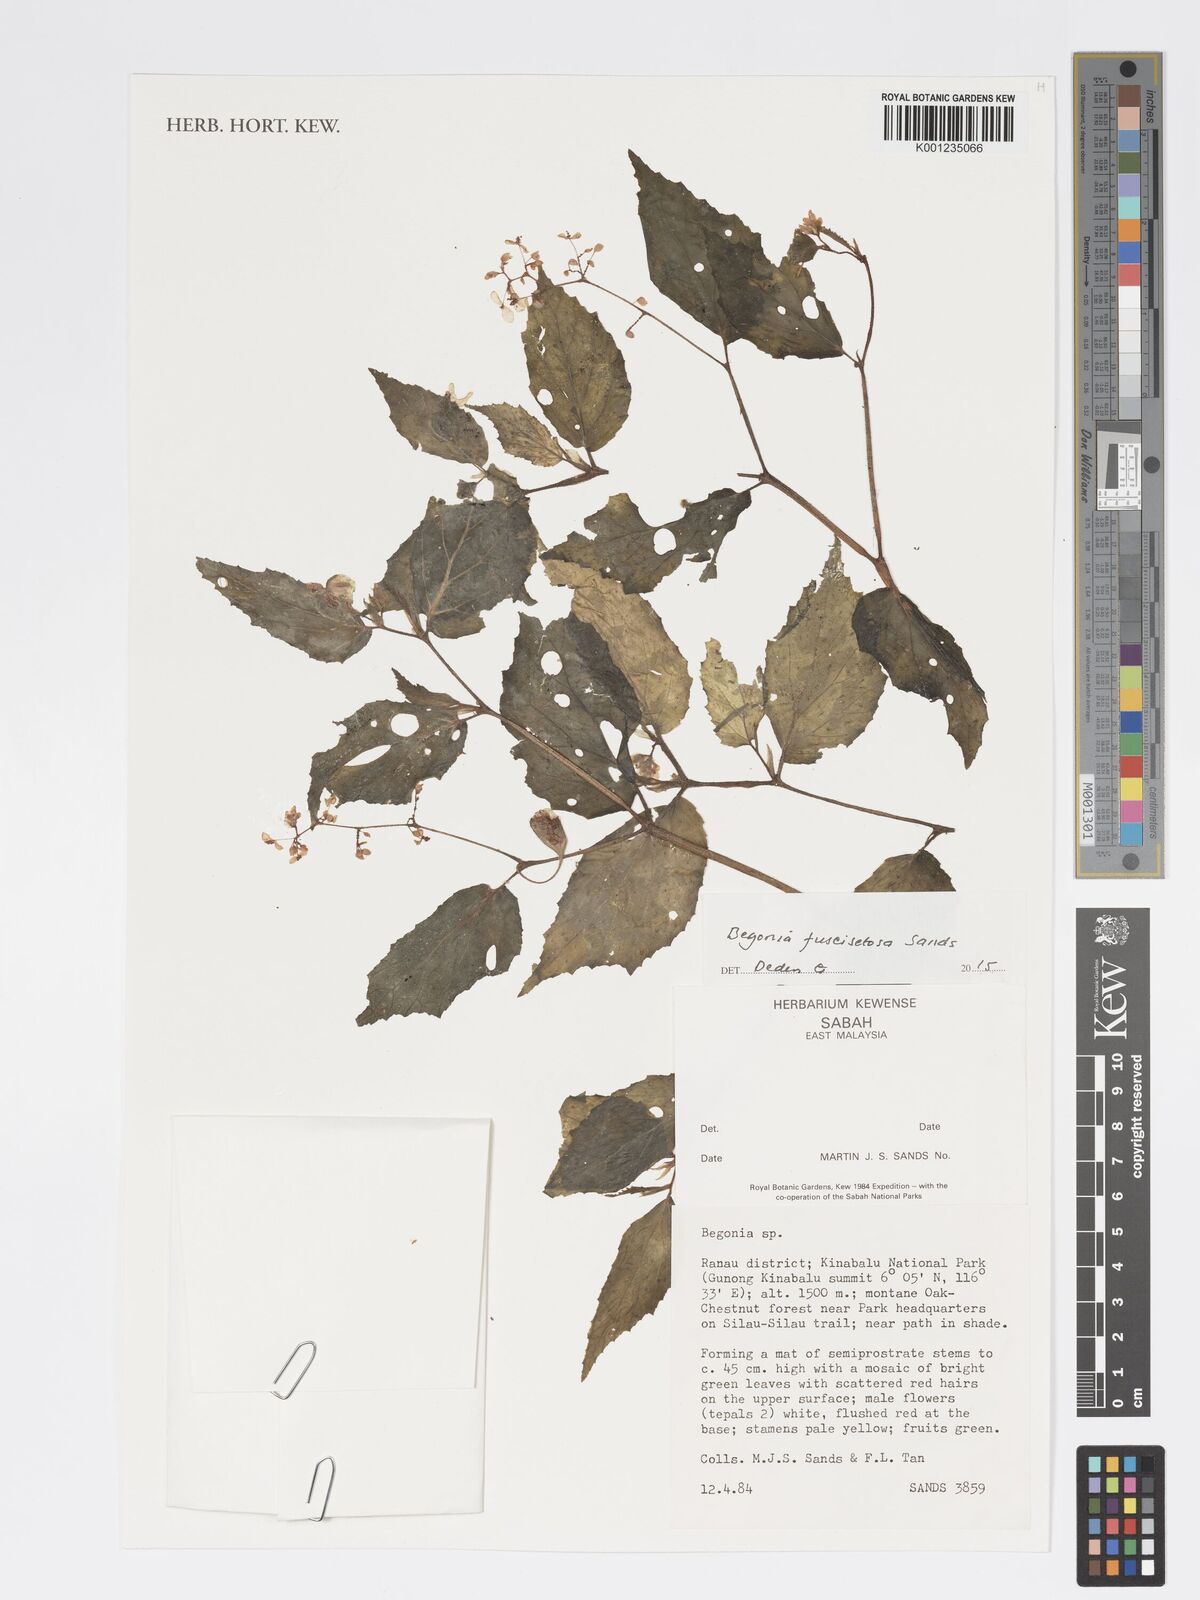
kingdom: Plantae
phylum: Tracheophyta
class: Magnoliopsida
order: Cucurbitales
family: Begoniaceae
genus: Begonia
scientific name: Begonia fuscisetosa
